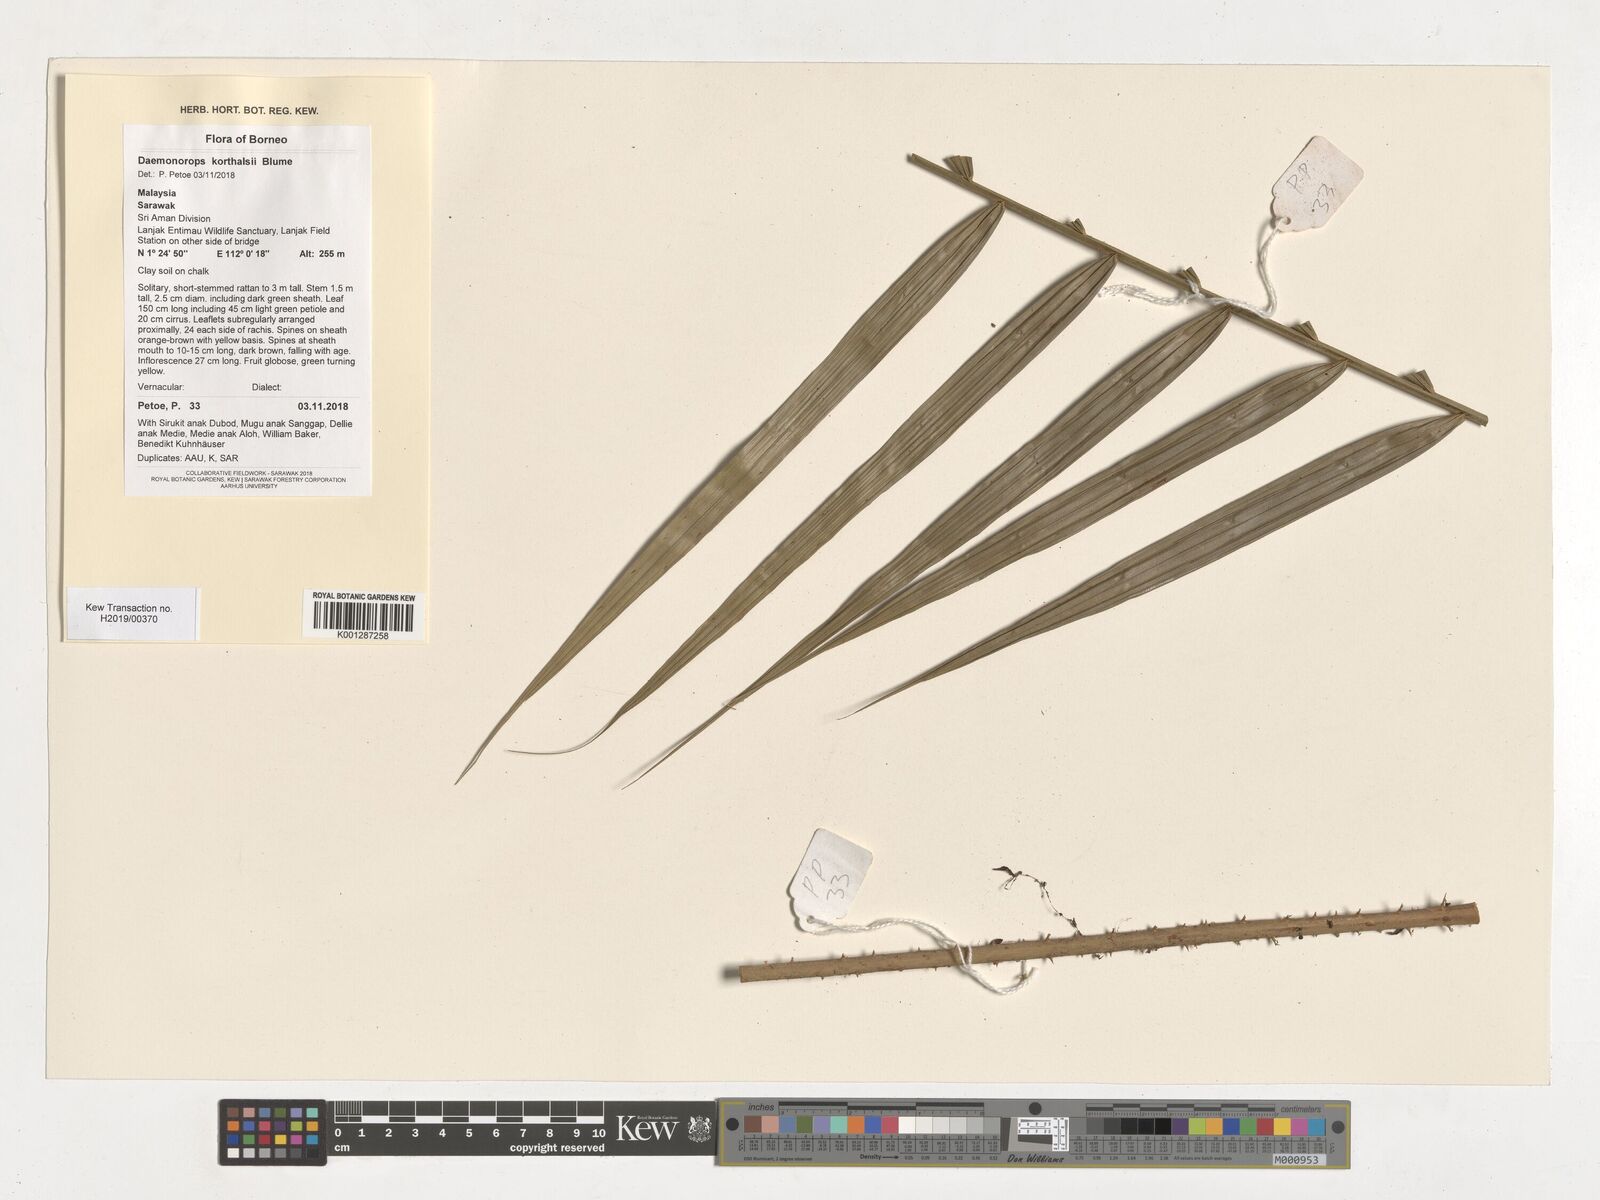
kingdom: Plantae
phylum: Tracheophyta
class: Liliopsida
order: Arecales
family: Arecaceae
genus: Calamus
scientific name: Calamus hirsutus
